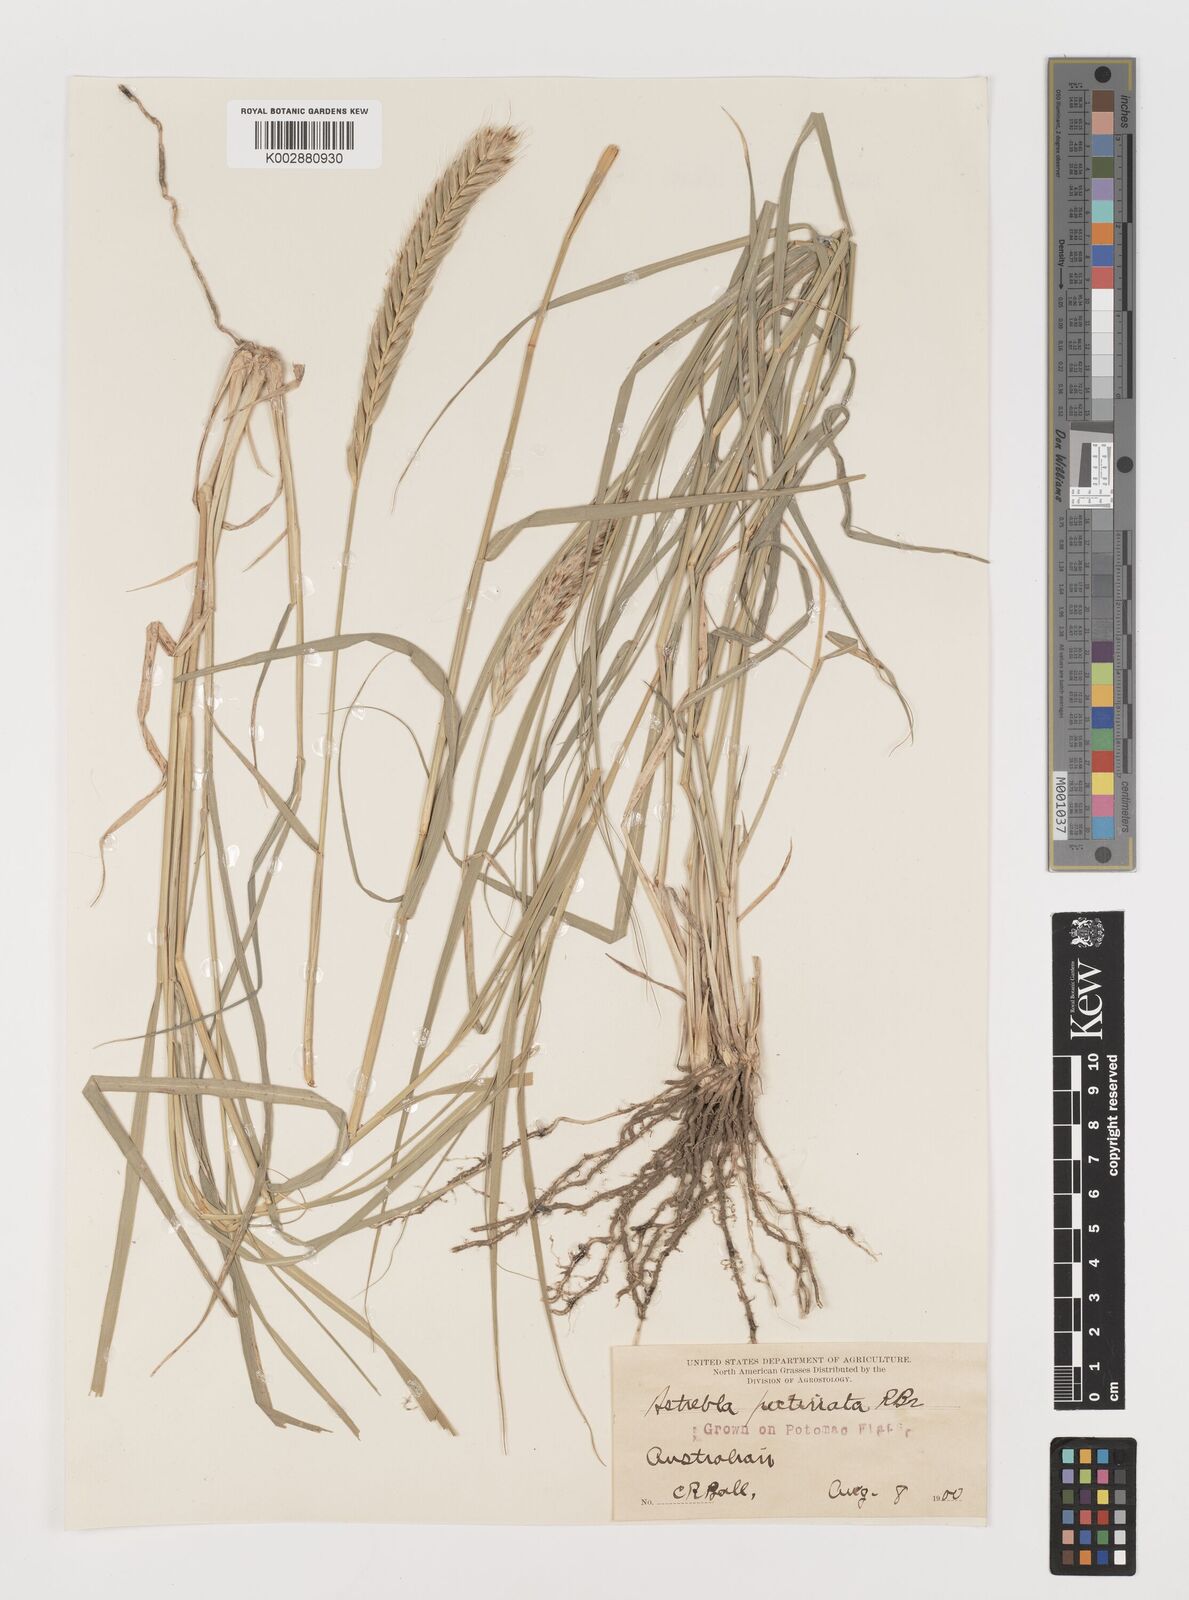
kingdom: Plantae
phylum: Tracheophyta
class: Liliopsida
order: Poales
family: Poaceae
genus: Astrebla
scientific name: Astrebla pectinata
